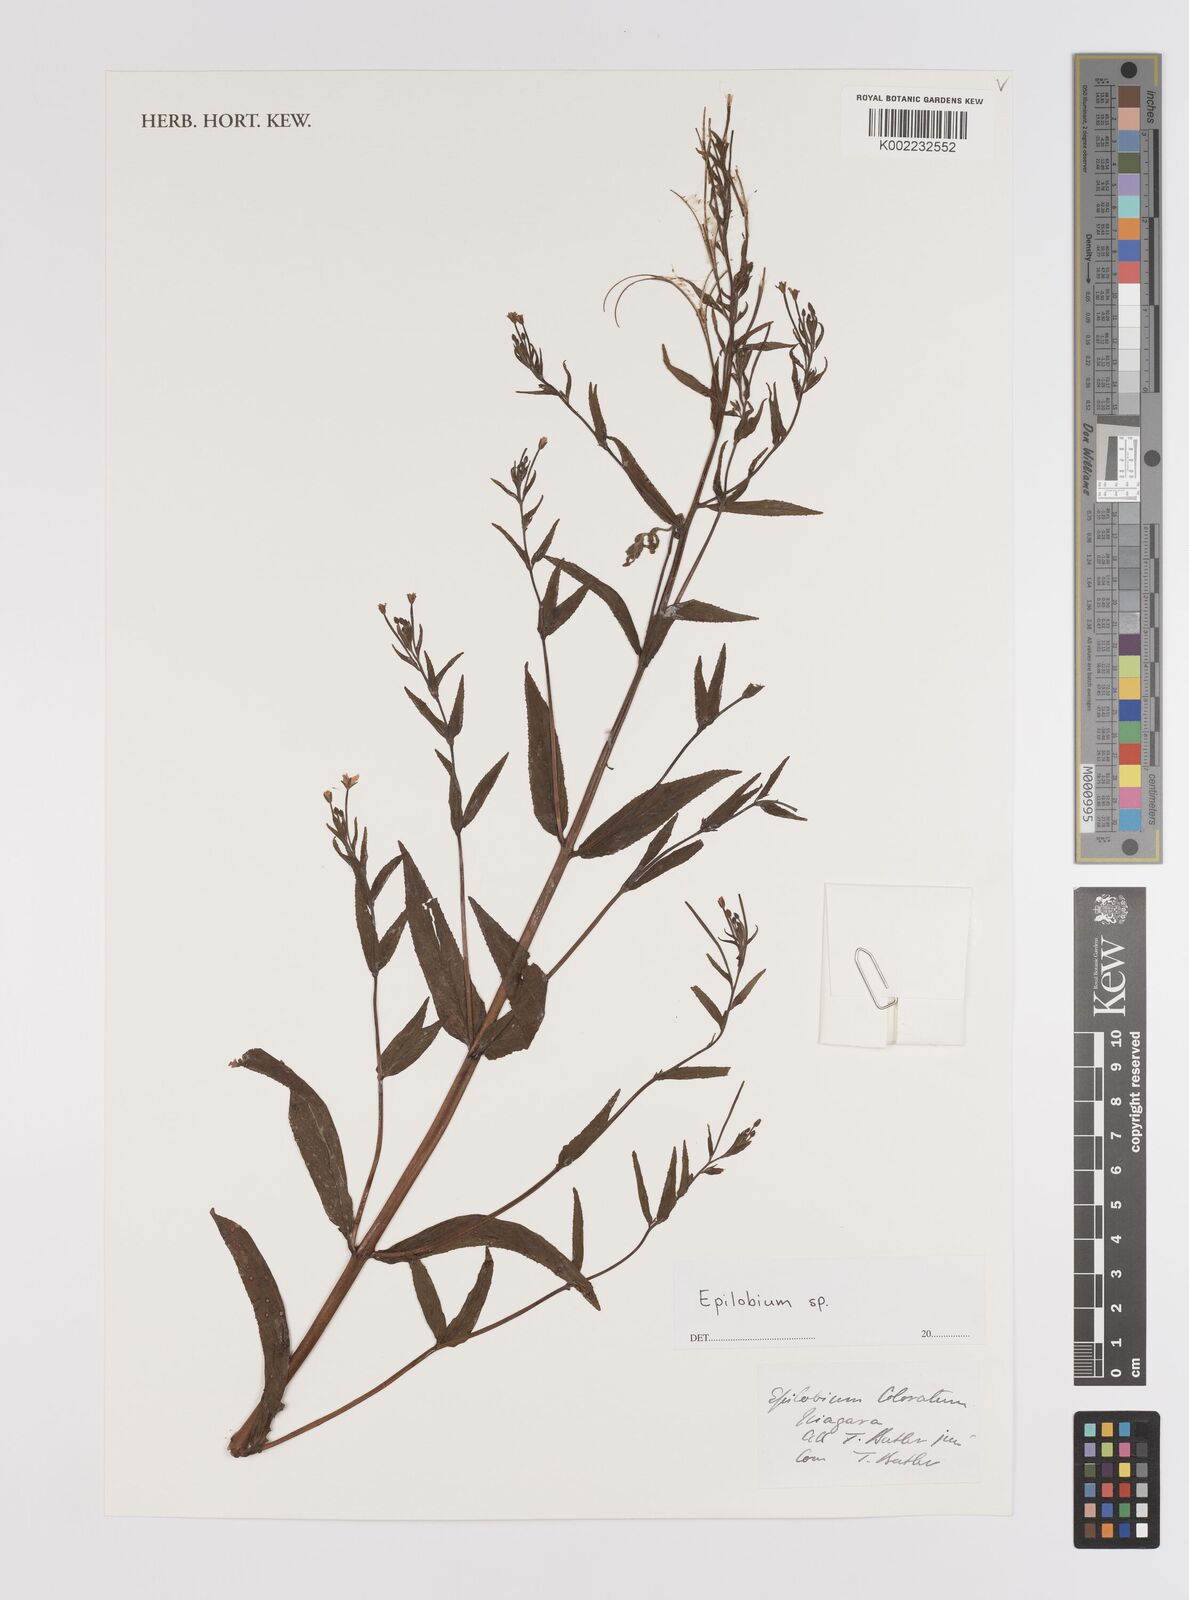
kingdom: Plantae
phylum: Tracheophyta
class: Magnoliopsida
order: Myrtales
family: Onagraceae
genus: Epilobium
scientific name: Epilobium coloratum
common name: Bronze willowherb
